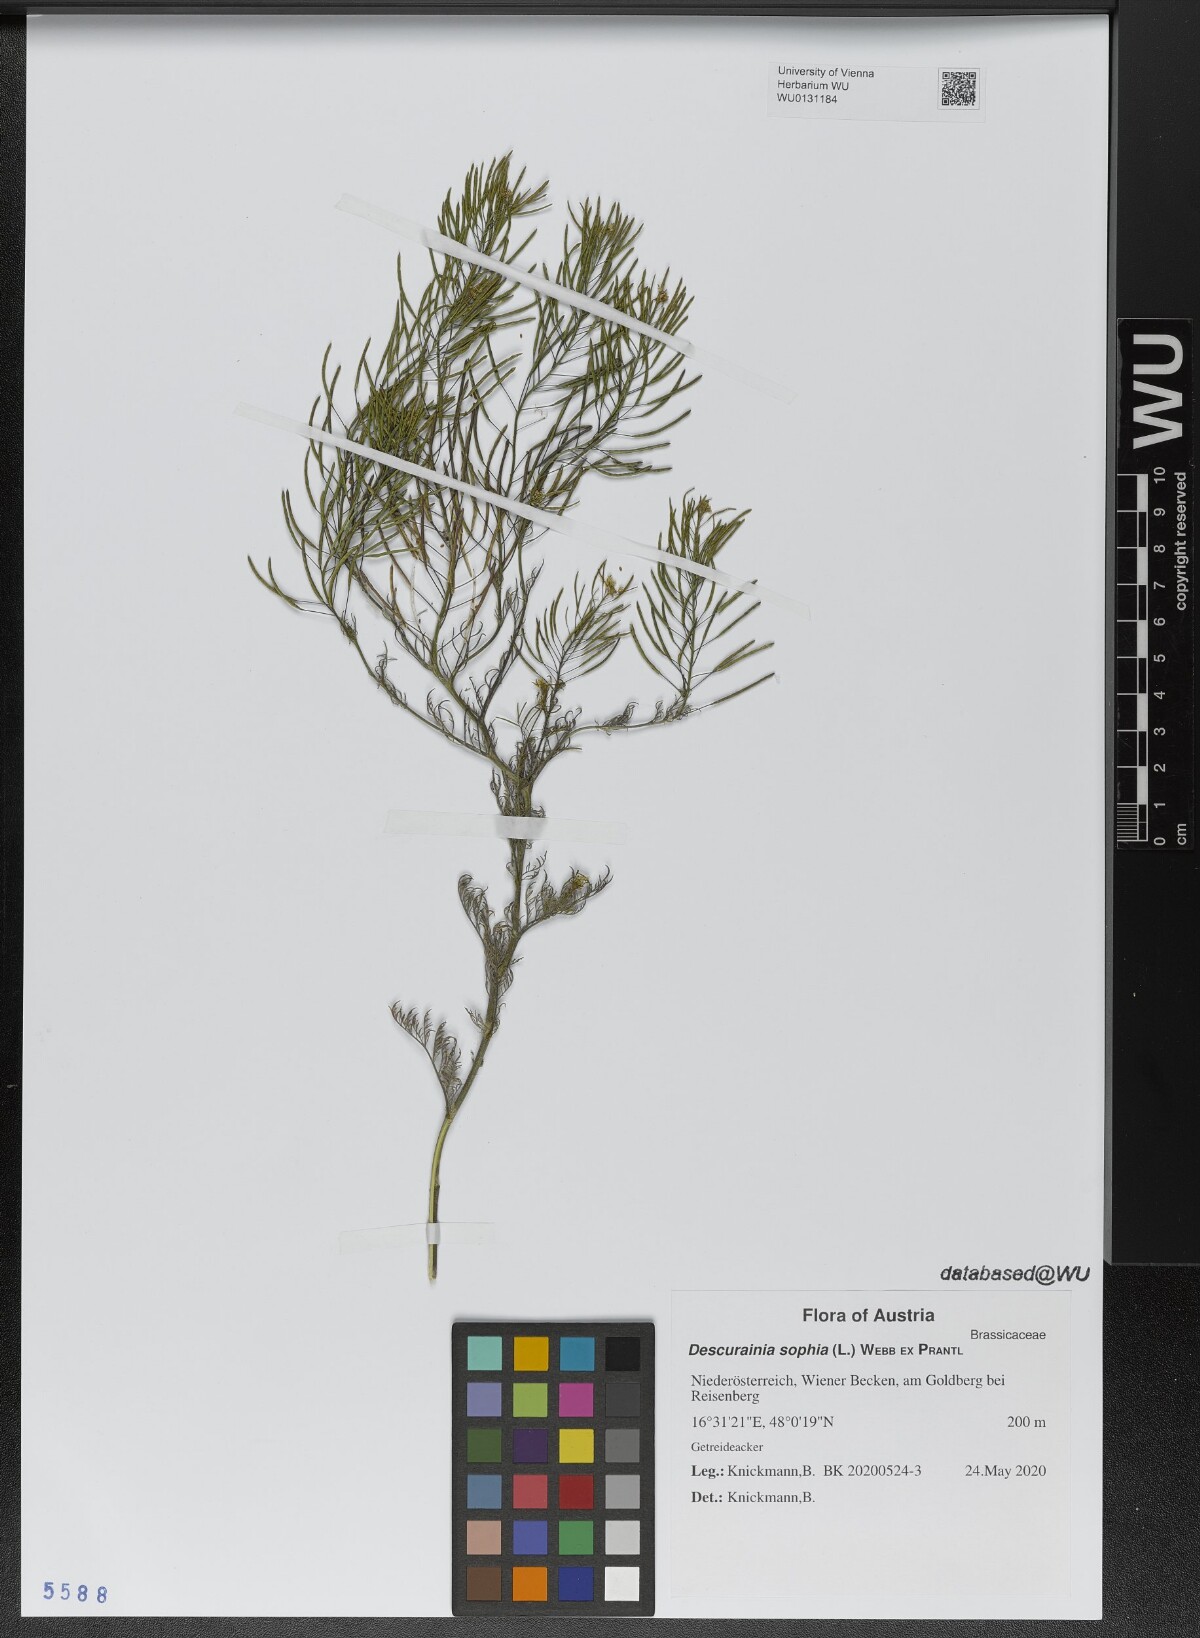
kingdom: Plantae
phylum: Tracheophyta
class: Magnoliopsida
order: Brassicales
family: Brassicaceae
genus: Descurainia
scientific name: Descurainia sophia
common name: Flixweed
